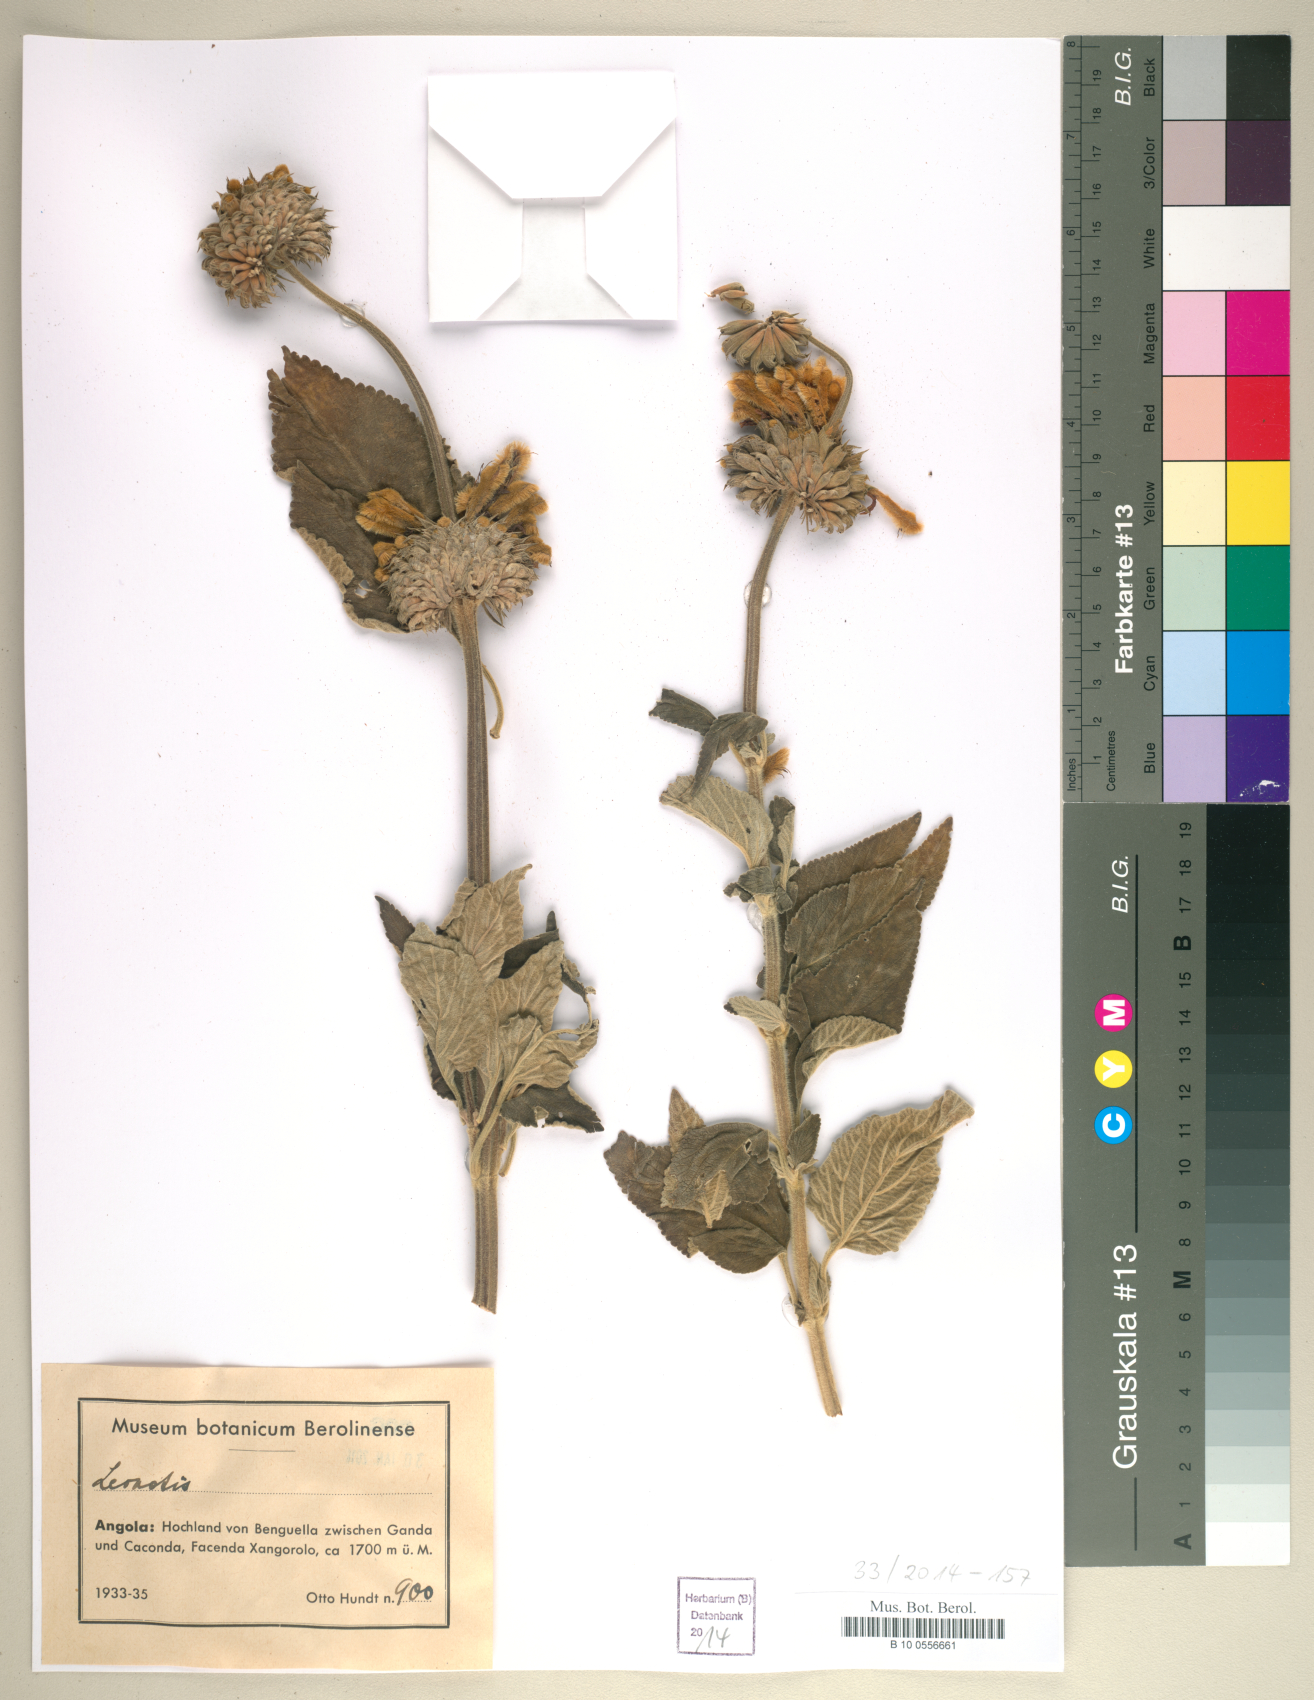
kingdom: Plantae
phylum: Tracheophyta
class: Magnoliopsida
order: Lamiales
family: Lamiaceae
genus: Leonotis
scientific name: Leonotis
